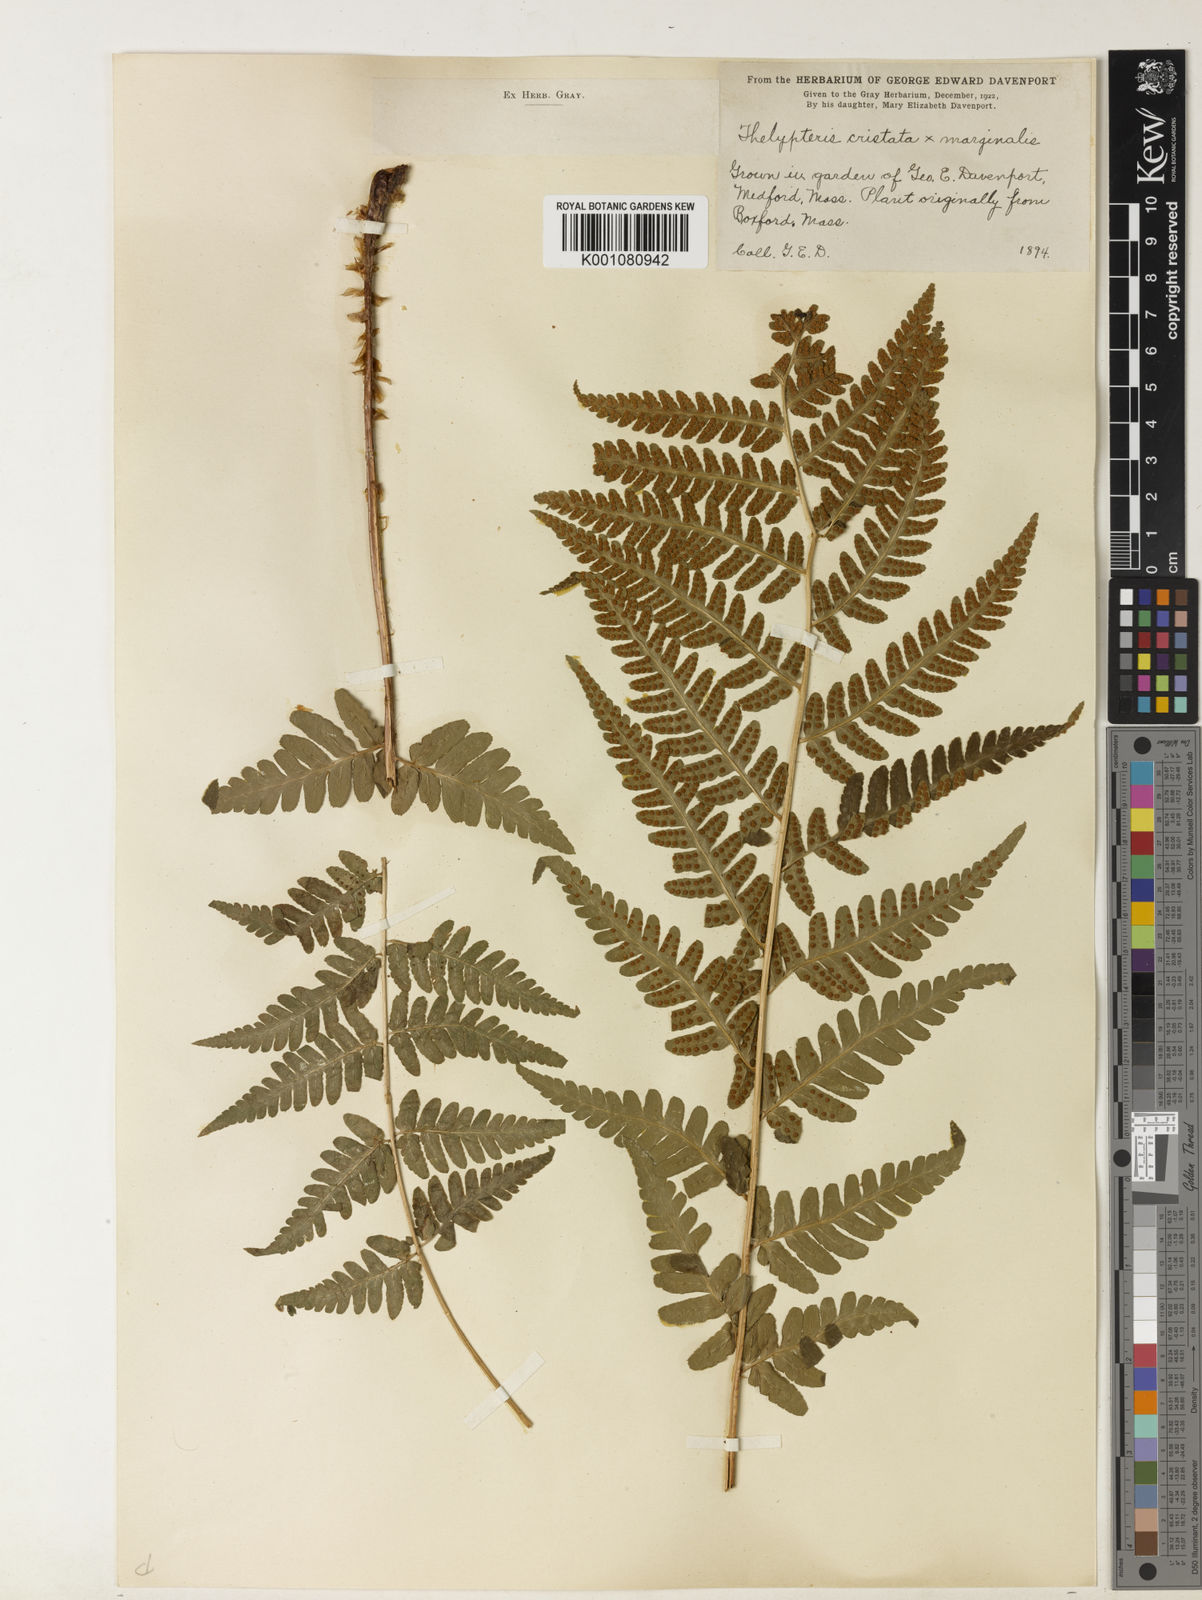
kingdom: Plantae
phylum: Tracheophyta
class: Polypodiopsida
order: Polypodiales
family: Dryopteridaceae
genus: Dryopteris
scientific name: Dryopteris
